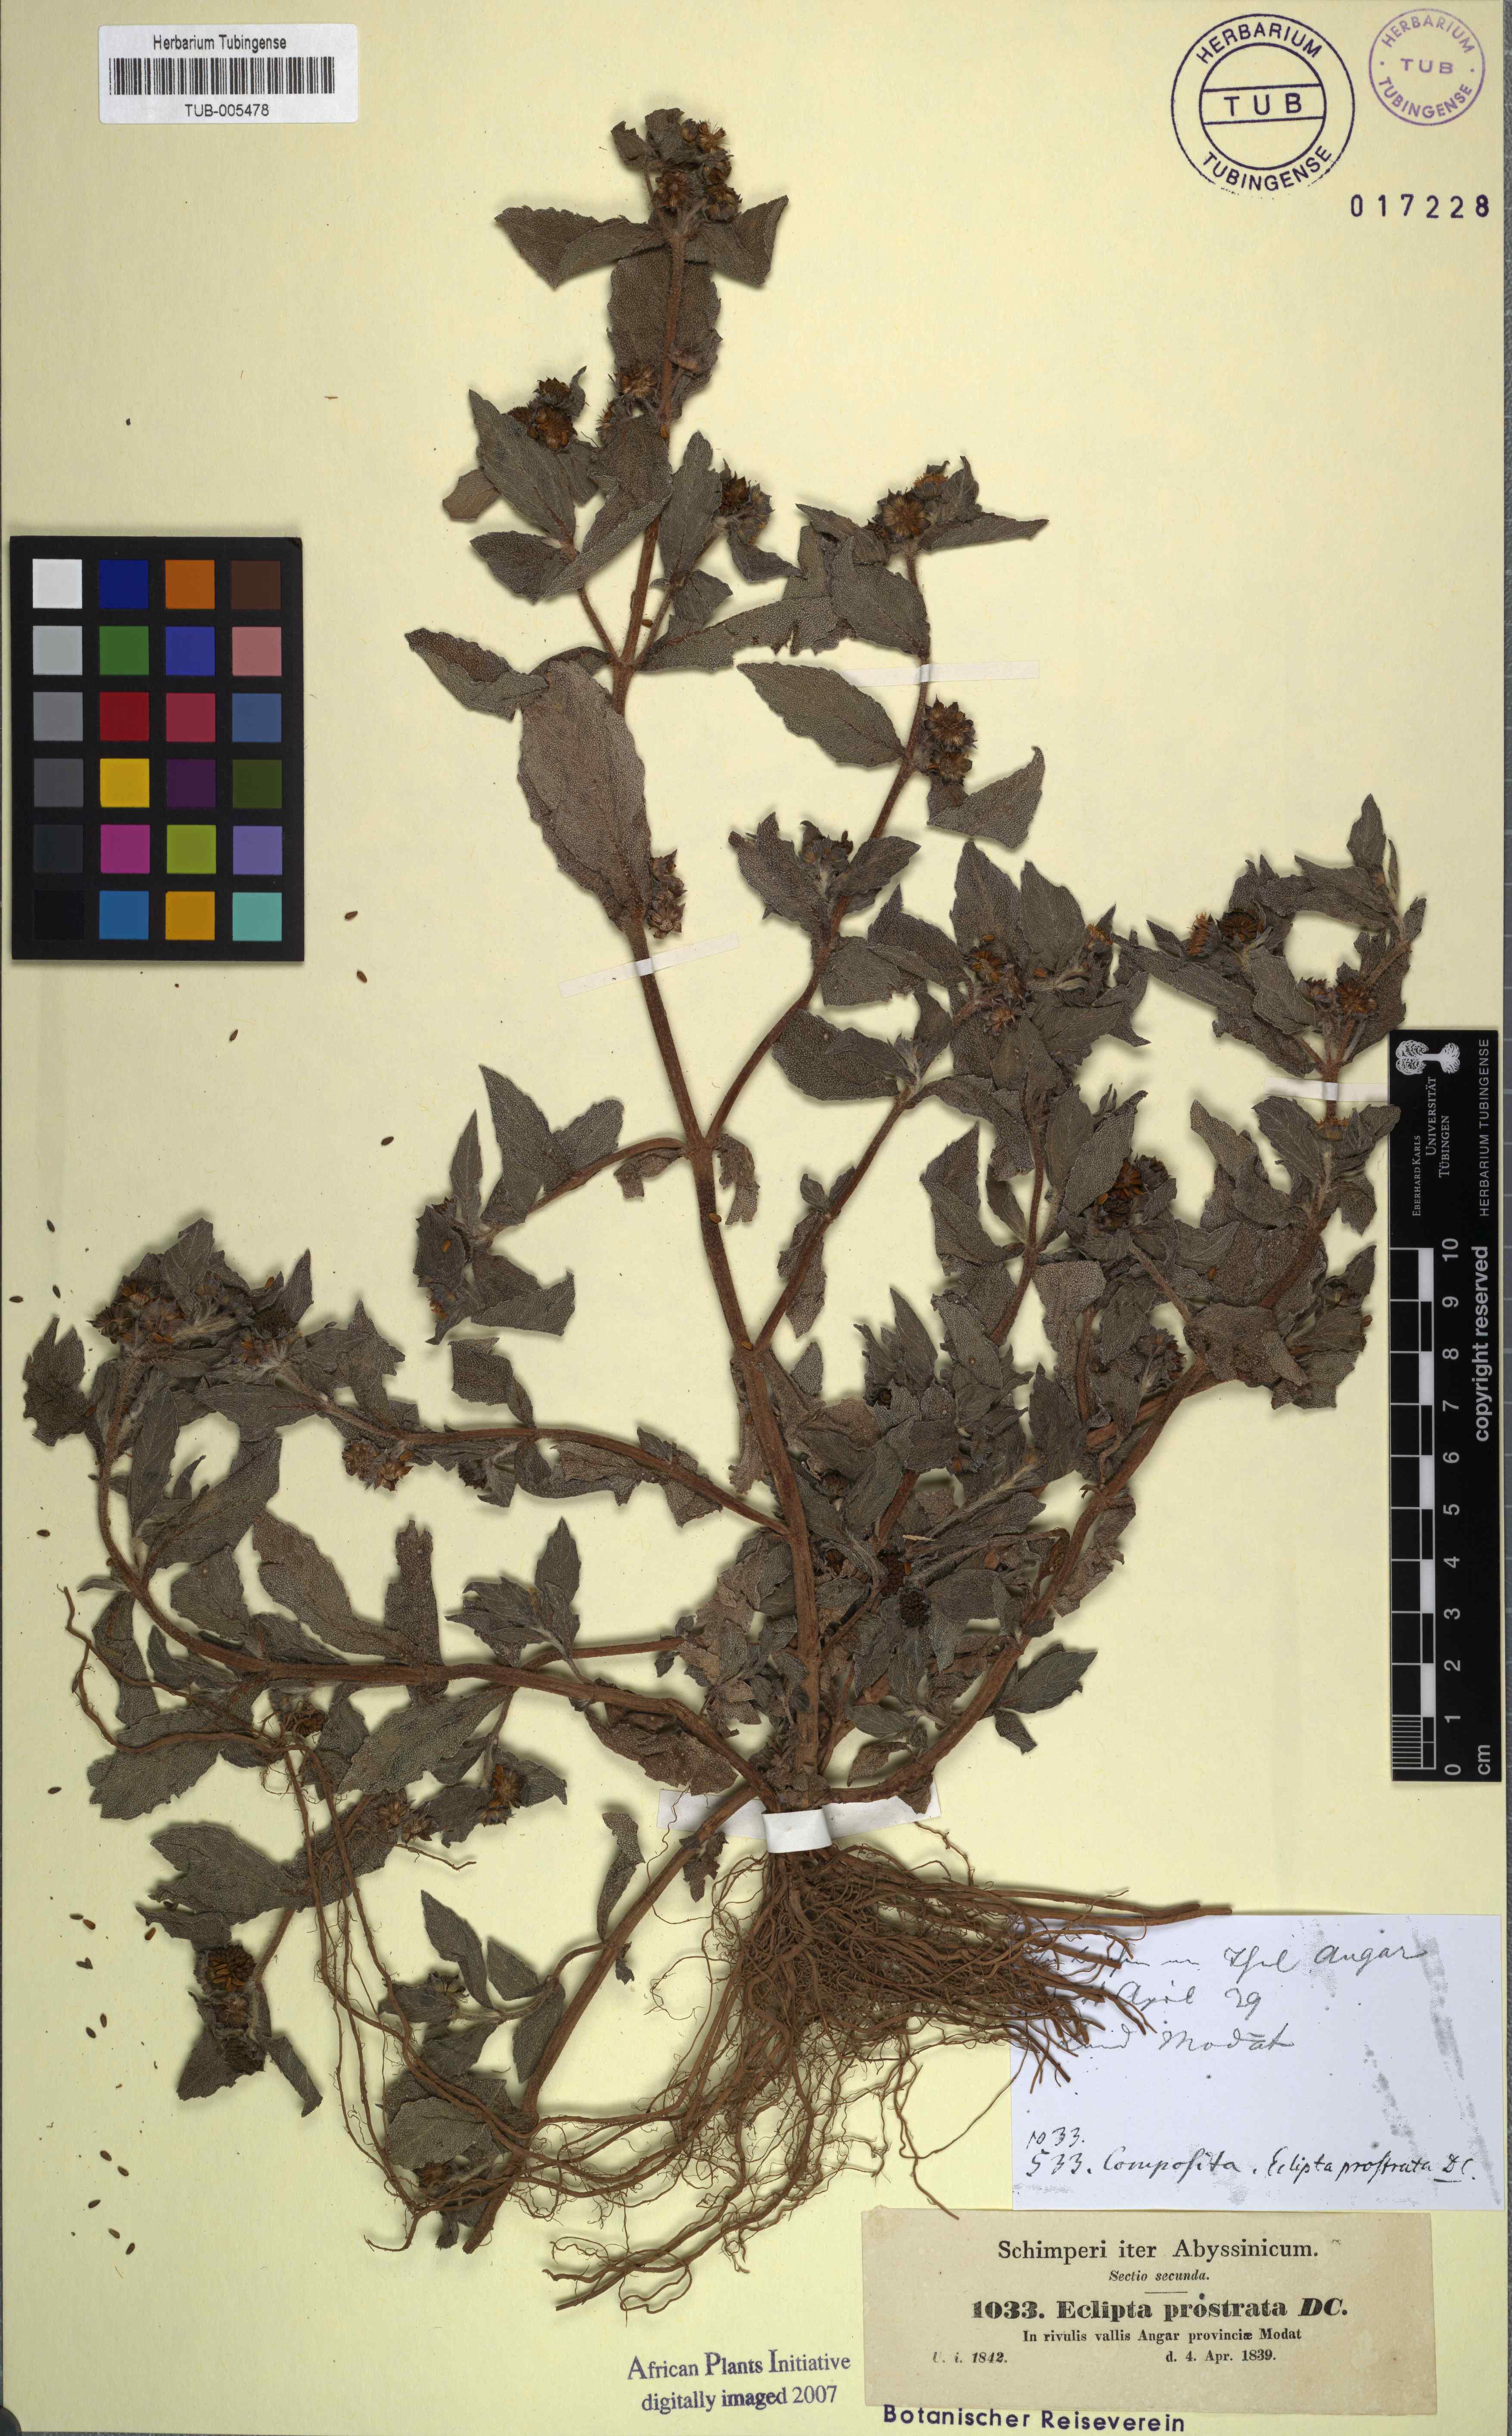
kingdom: Plantae
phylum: Tracheophyta
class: Magnoliopsida
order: Asterales
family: Asteraceae
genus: Eclipta
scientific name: Eclipta prostrata
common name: False daisy
